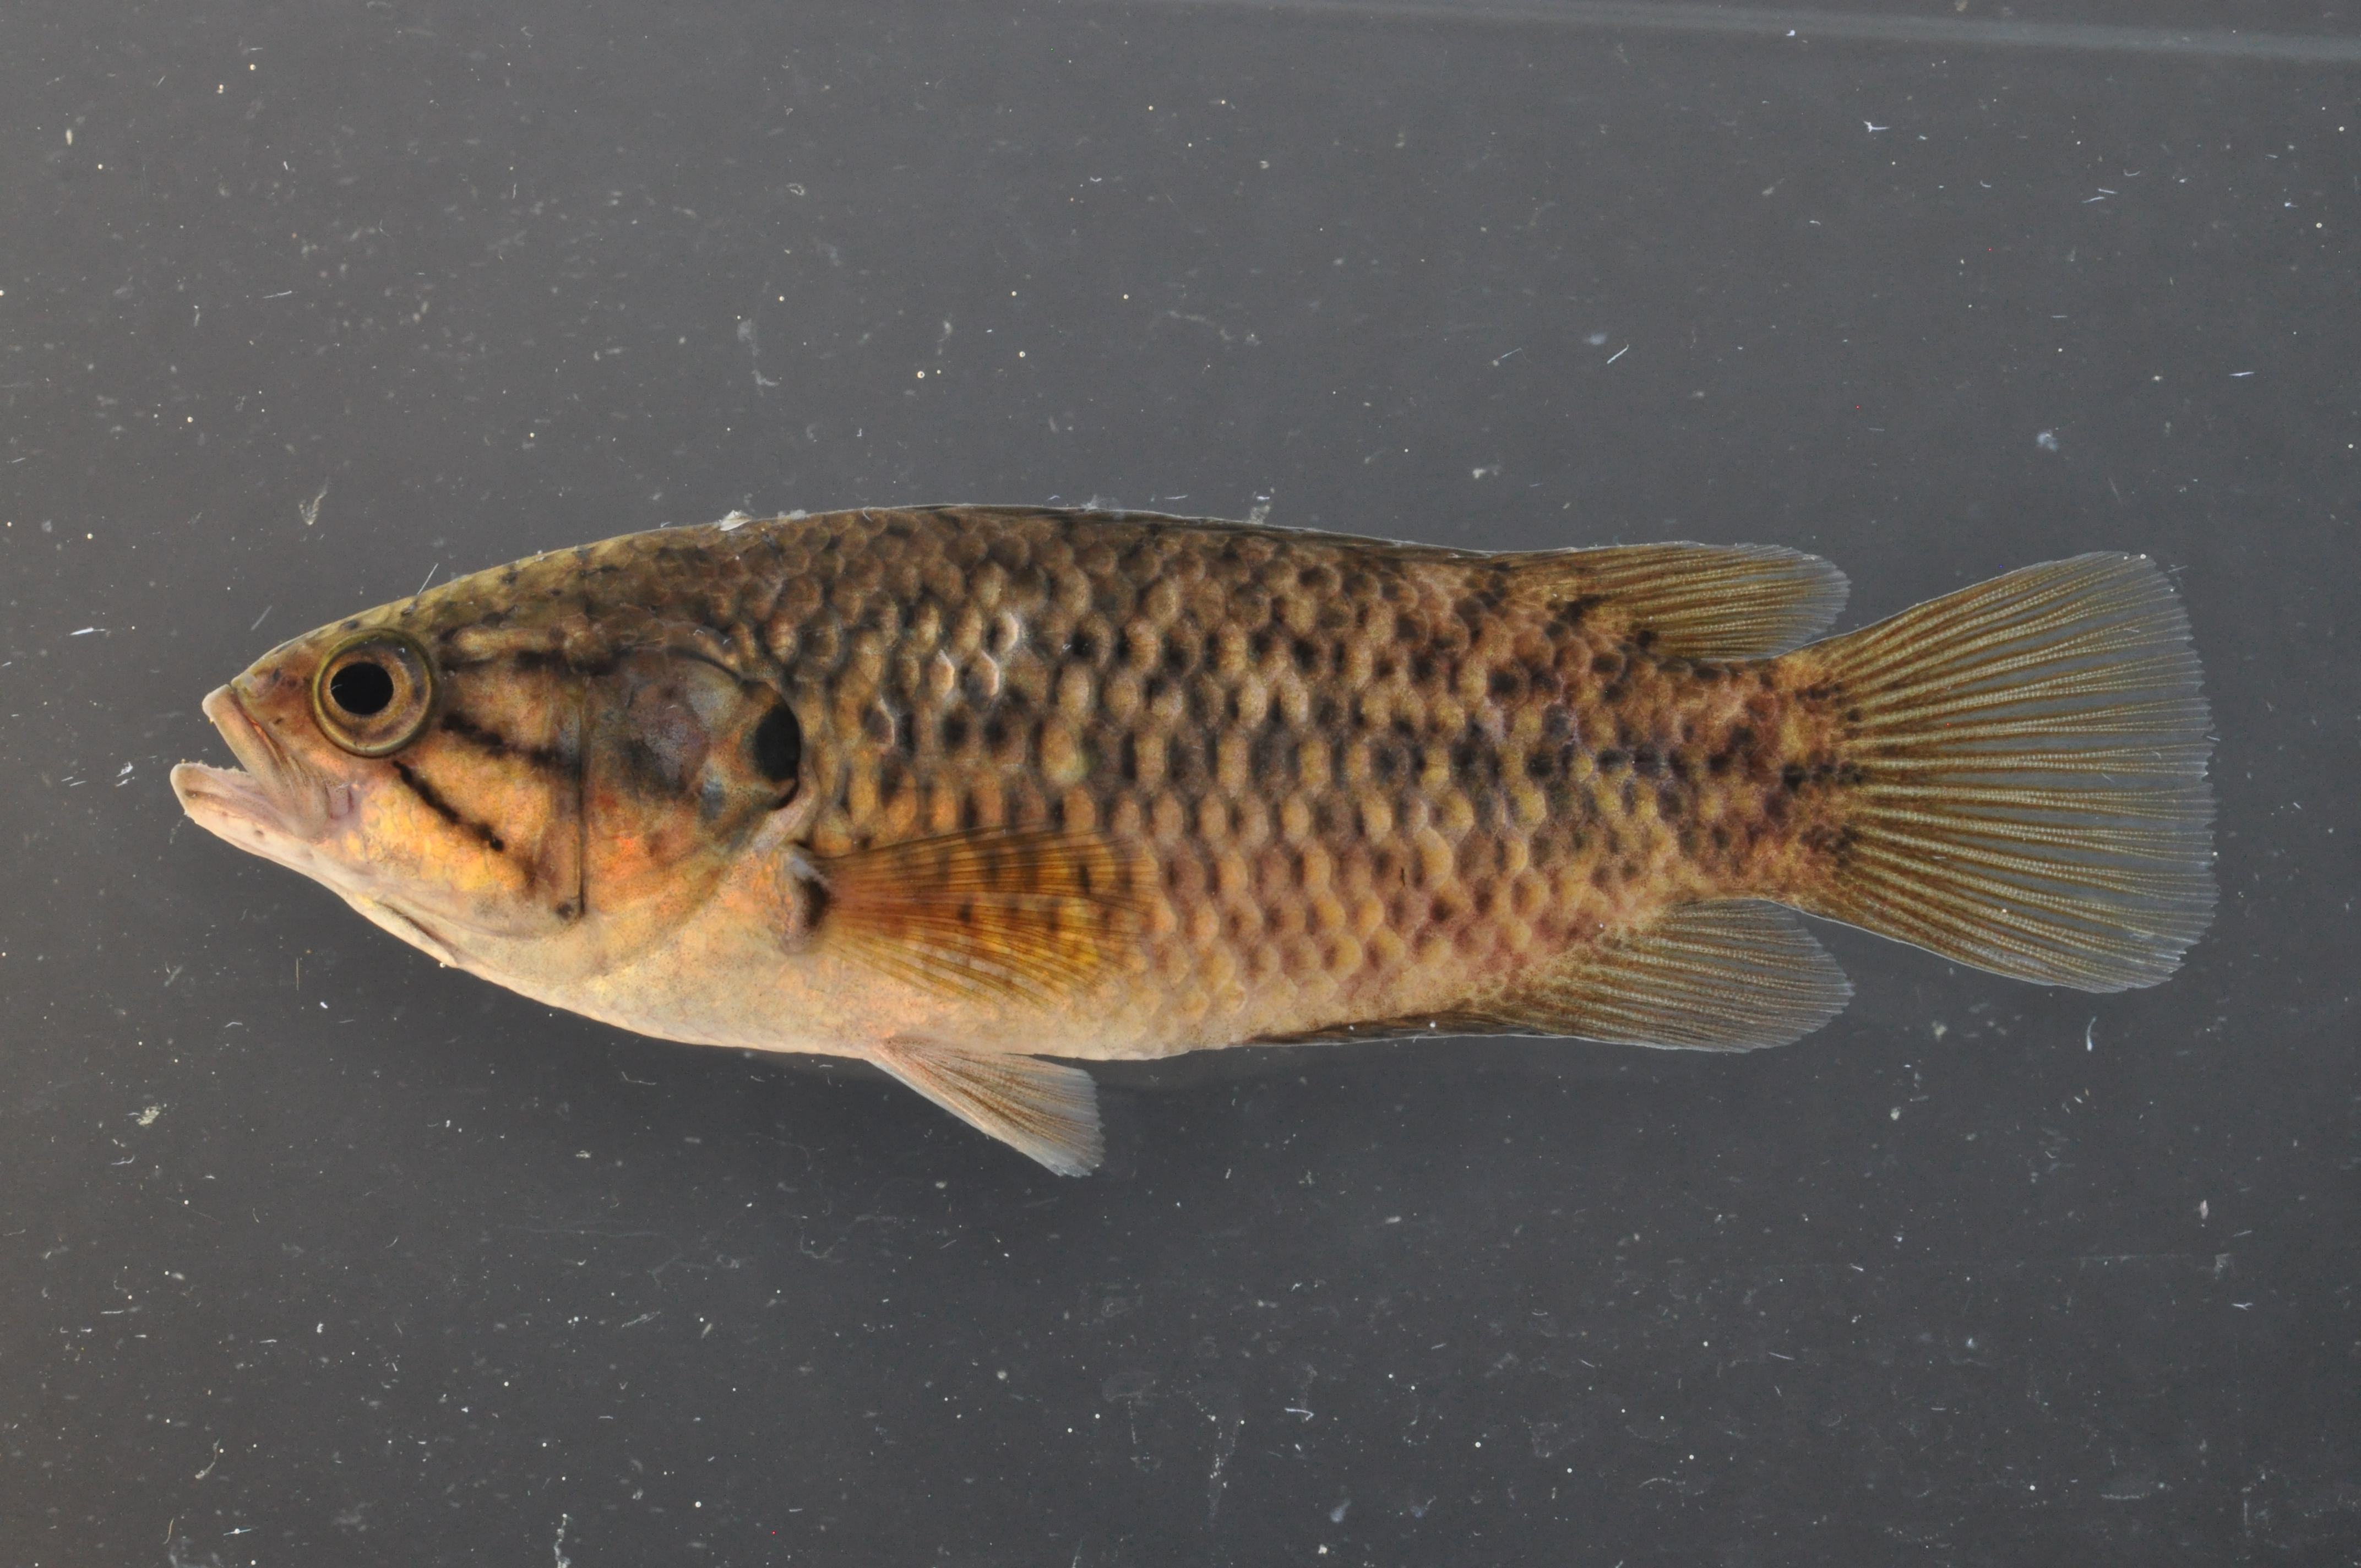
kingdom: Animalia
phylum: Chordata
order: Perciformes
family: Anabantidae
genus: Sandelia
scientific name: Sandelia capensis
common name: Cape kurper
